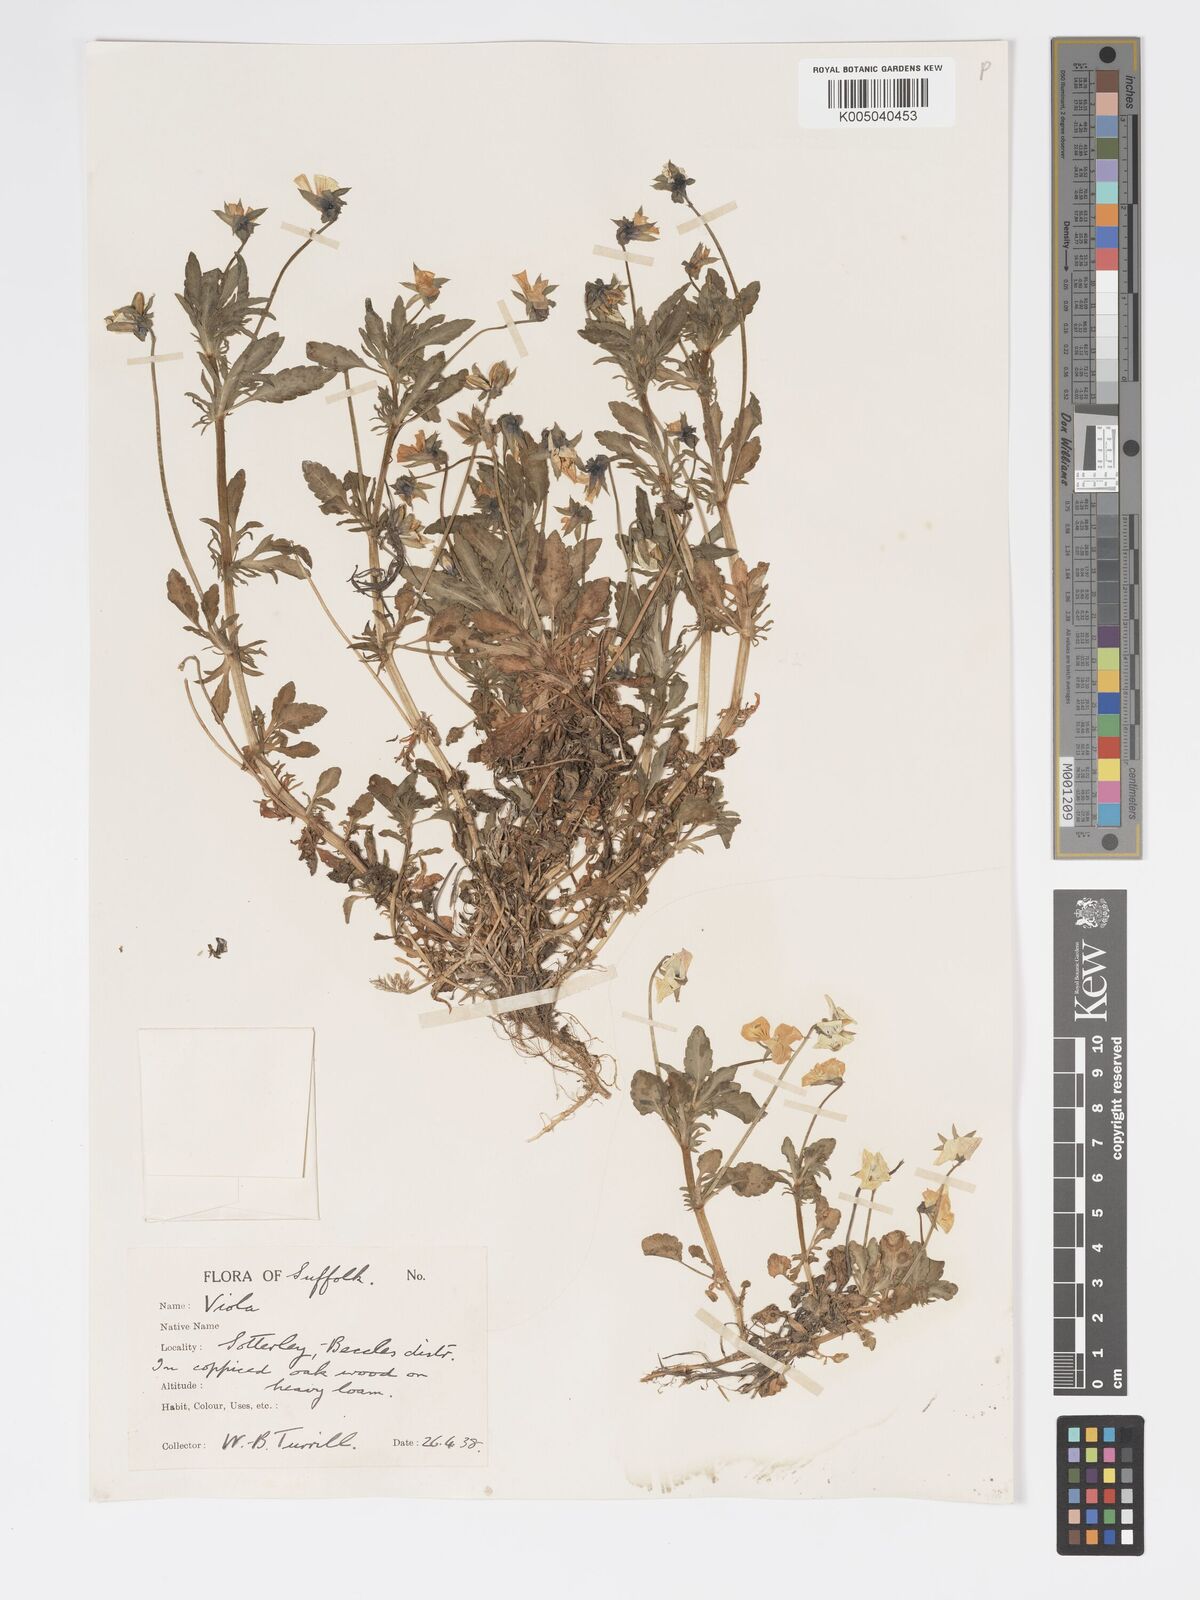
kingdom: Plantae
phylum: Tracheophyta
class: Magnoliopsida
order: Malpighiales
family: Violaceae
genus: Viola
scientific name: Viola arvensis
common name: Field pansy
